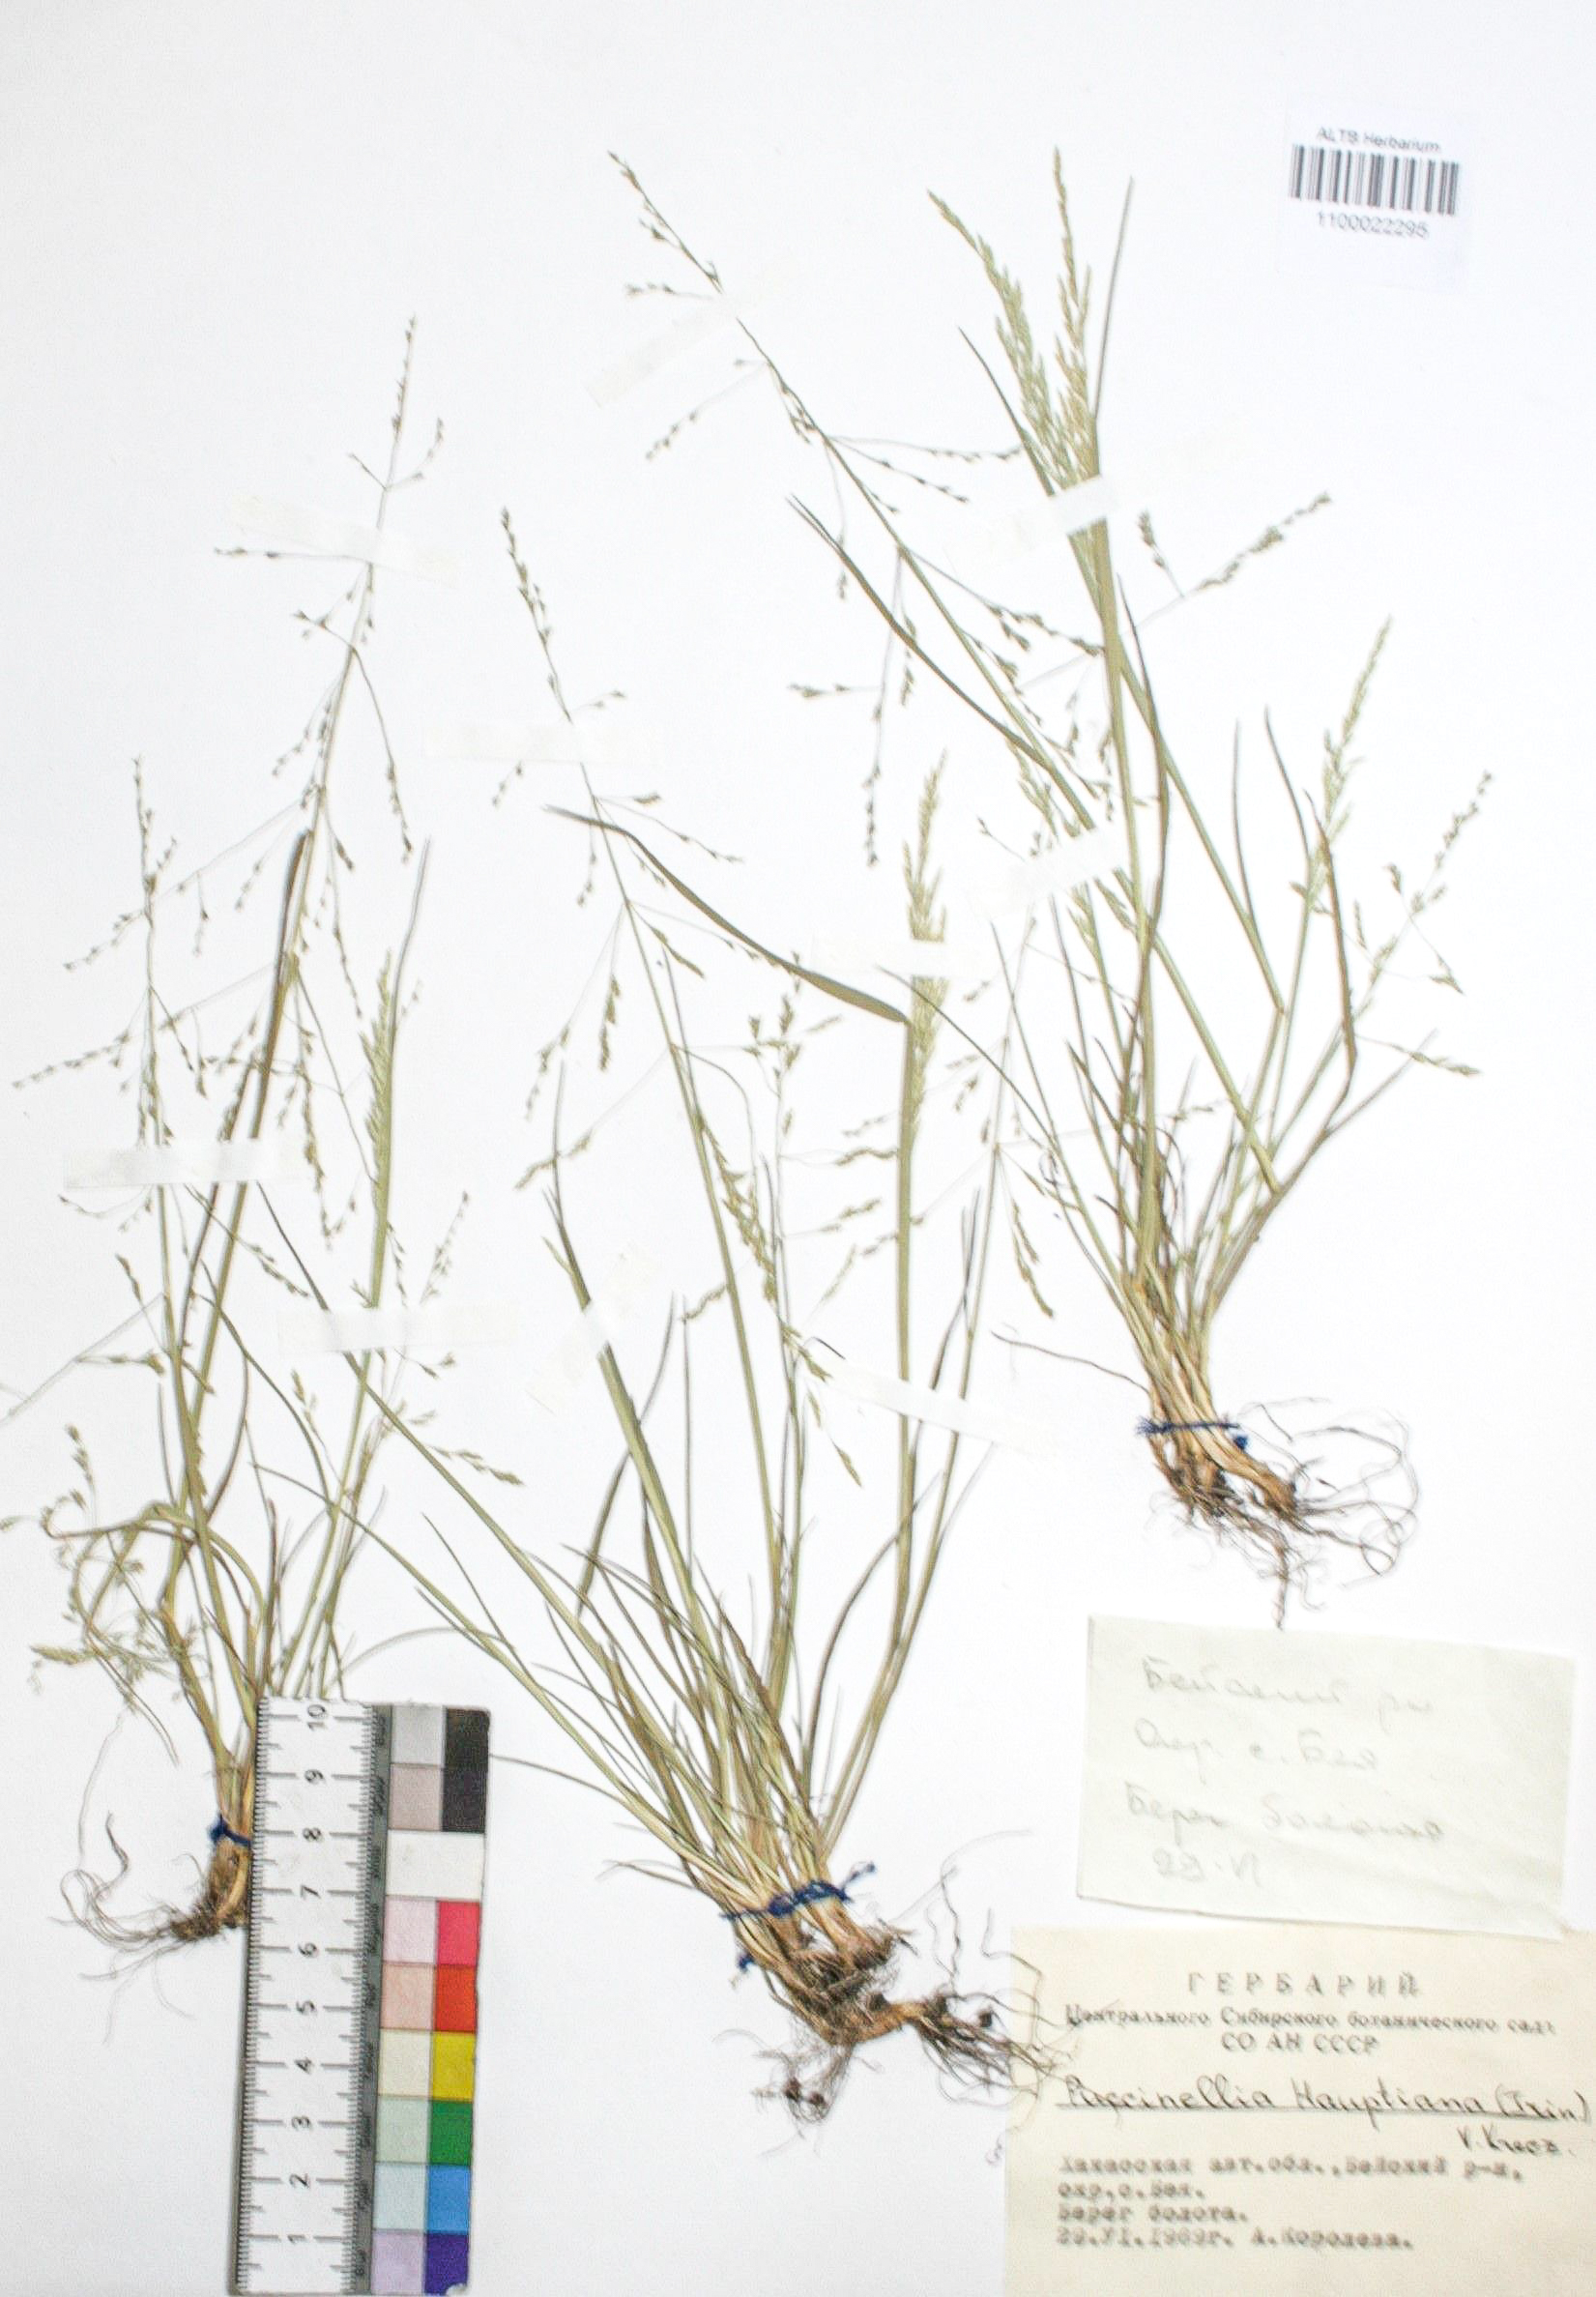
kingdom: Plantae
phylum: Tracheophyta
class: Liliopsida
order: Poales
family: Poaceae
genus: Puccinellia
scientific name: Puccinellia hauptiana
